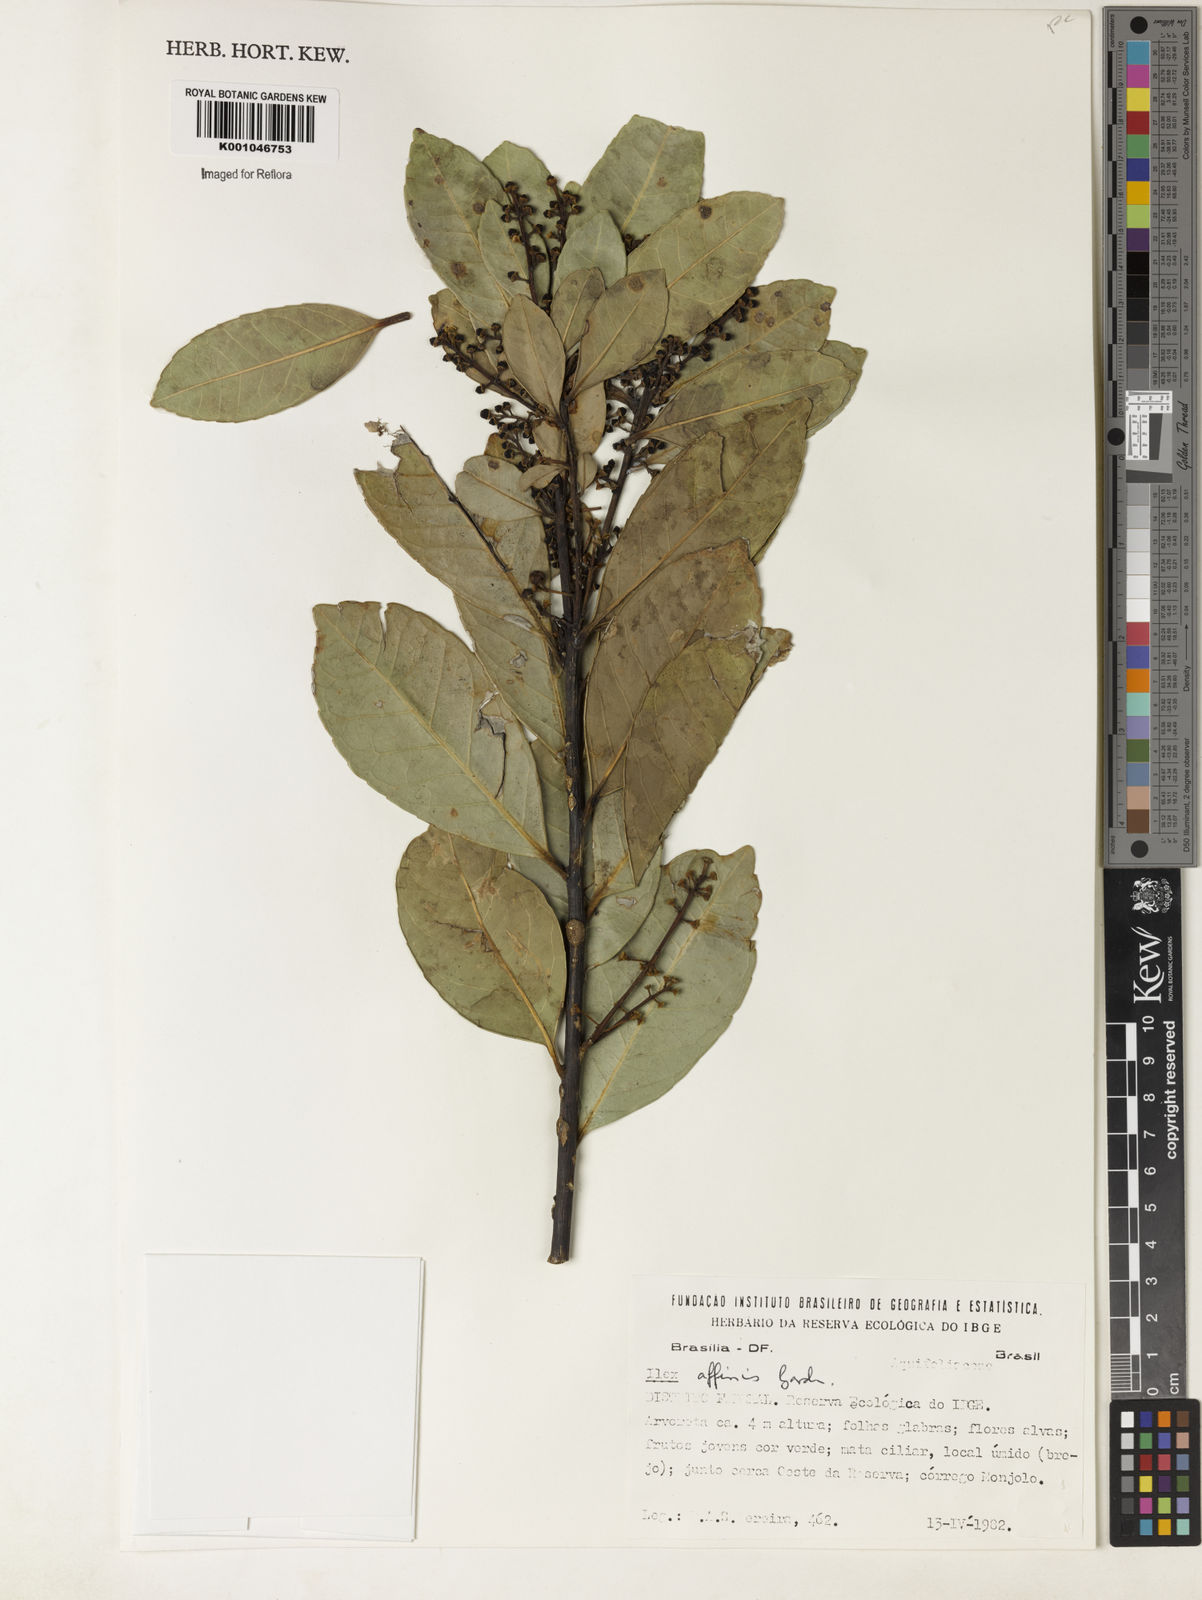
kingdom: Plantae
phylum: Tracheophyta
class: Magnoliopsida
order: Aquifoliales
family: Aquifoliaceae
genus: Ilex
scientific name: Ilex affinis
